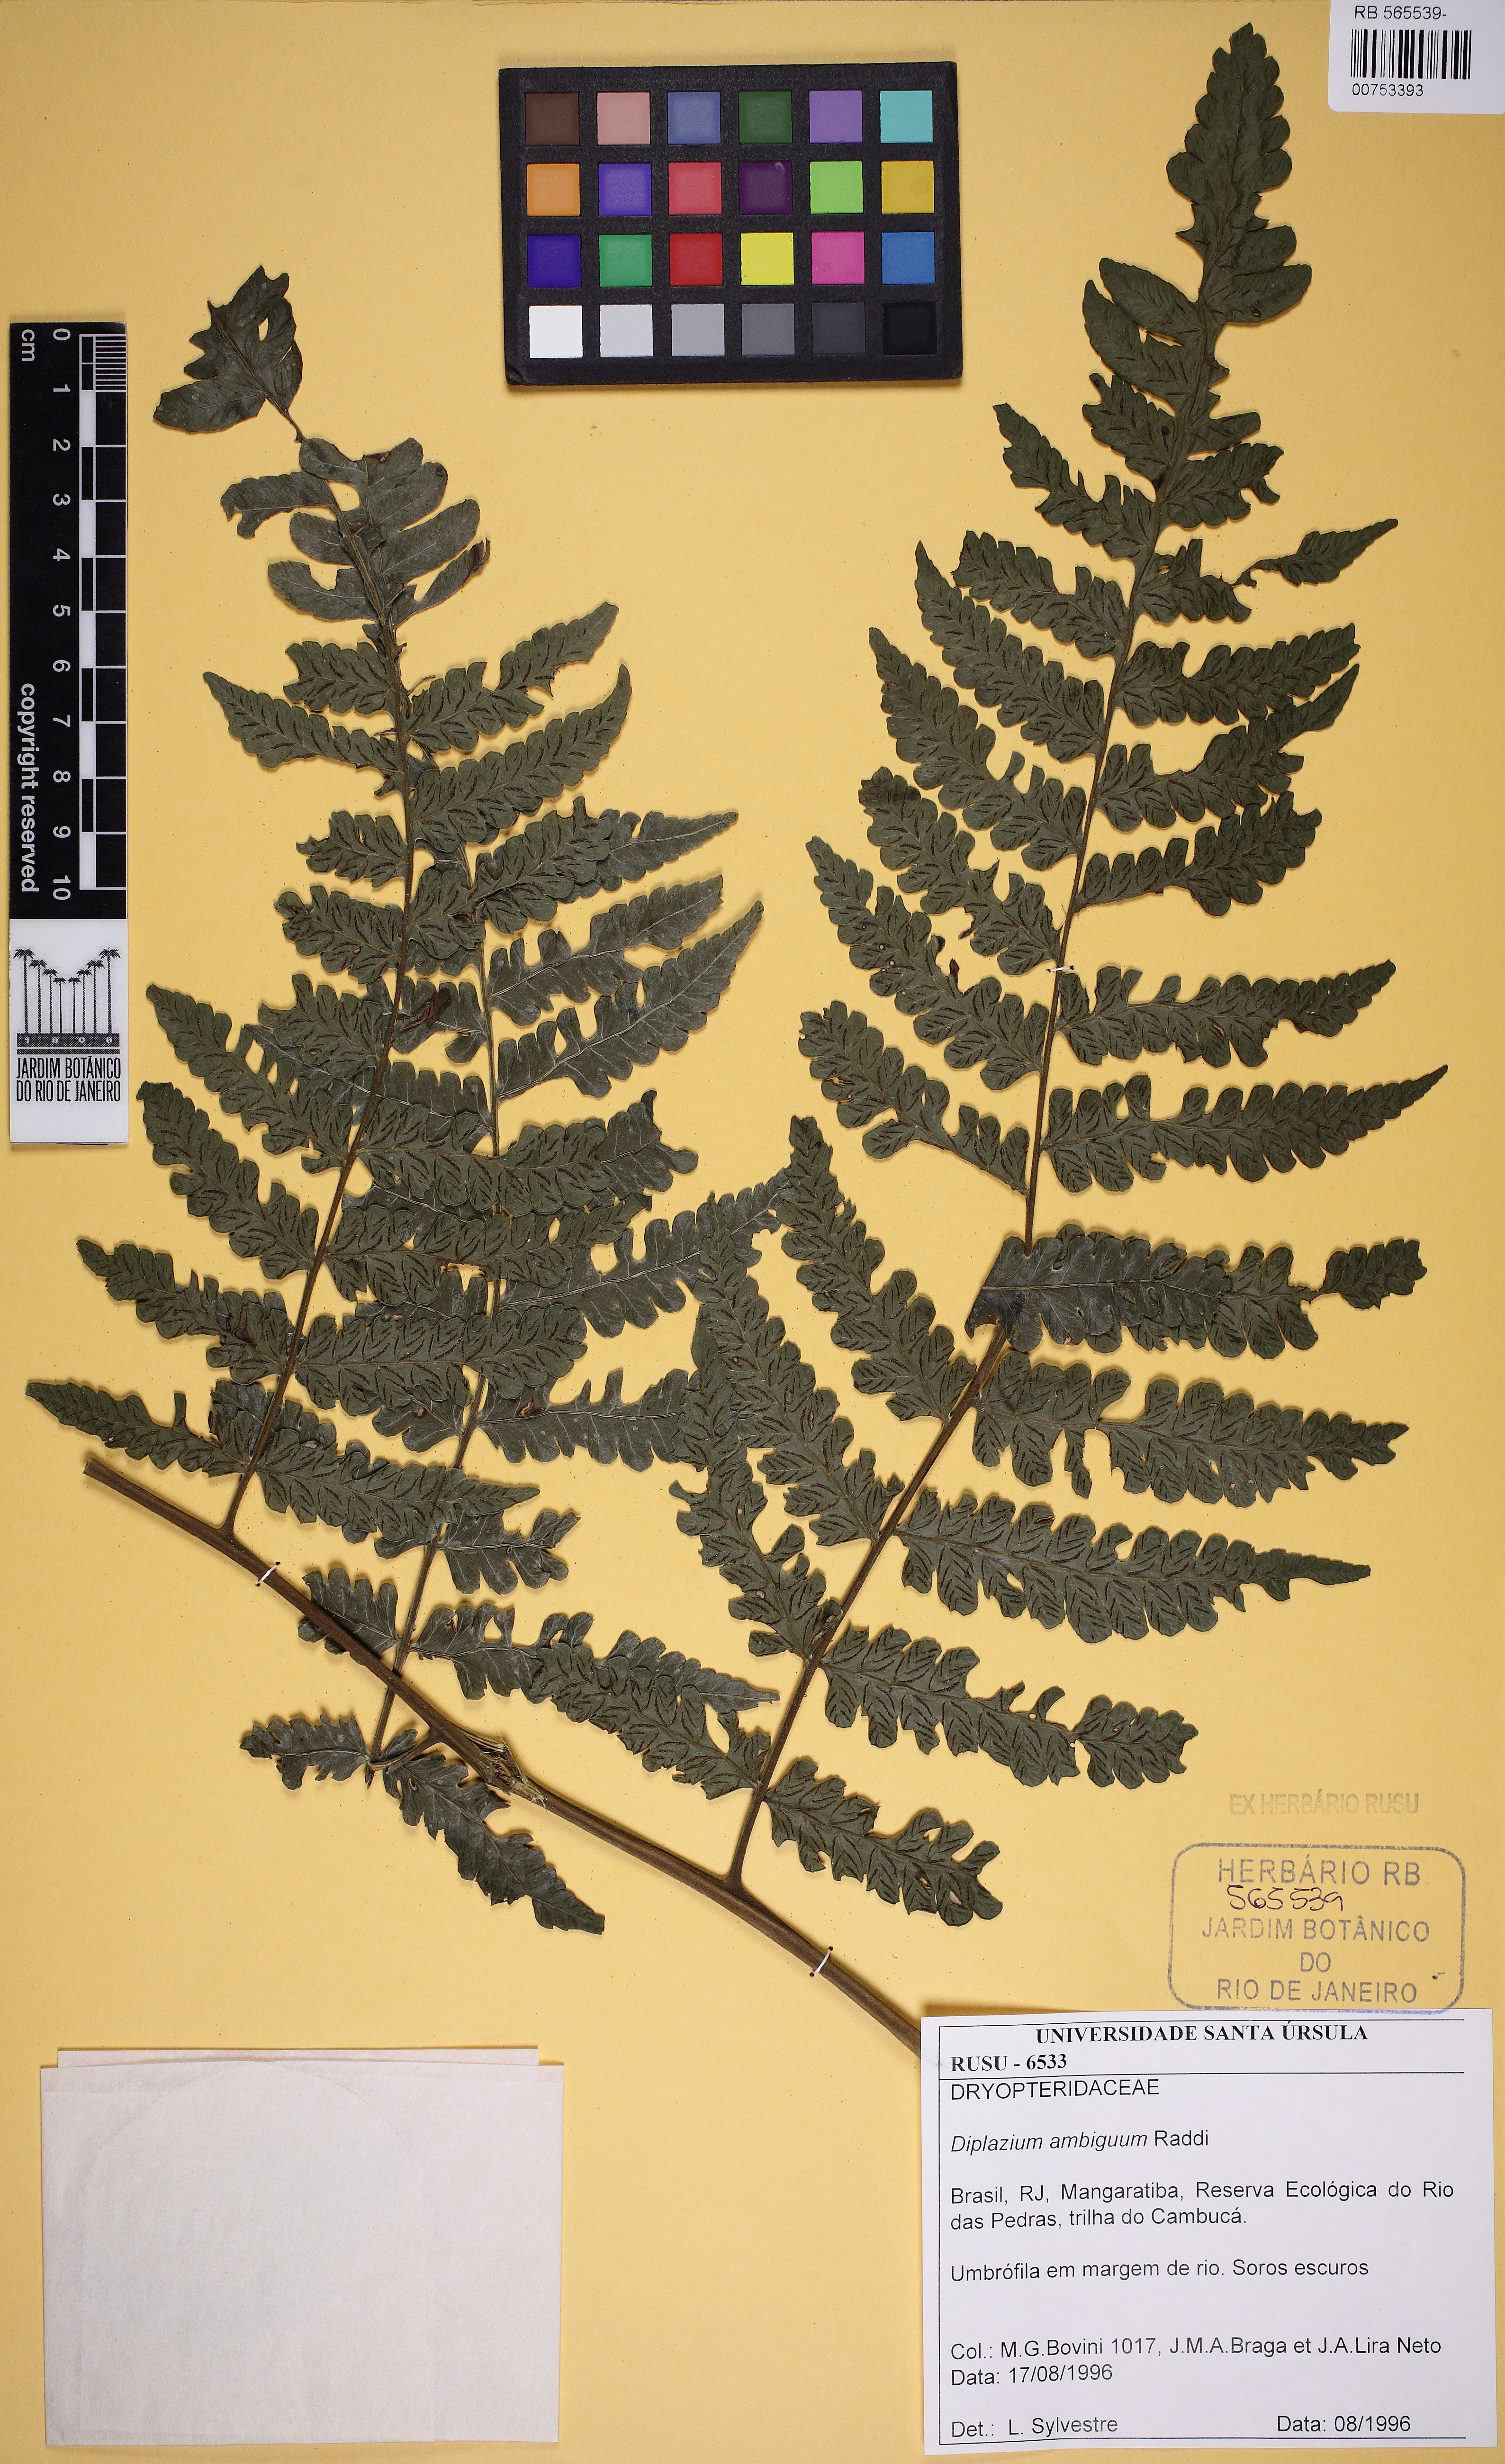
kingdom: Plantae
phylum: Tracheophyta
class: Polypodiopsida
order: Polypodiales
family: Athyriaceae
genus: Diplazium
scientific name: Diplazium ambiguum
